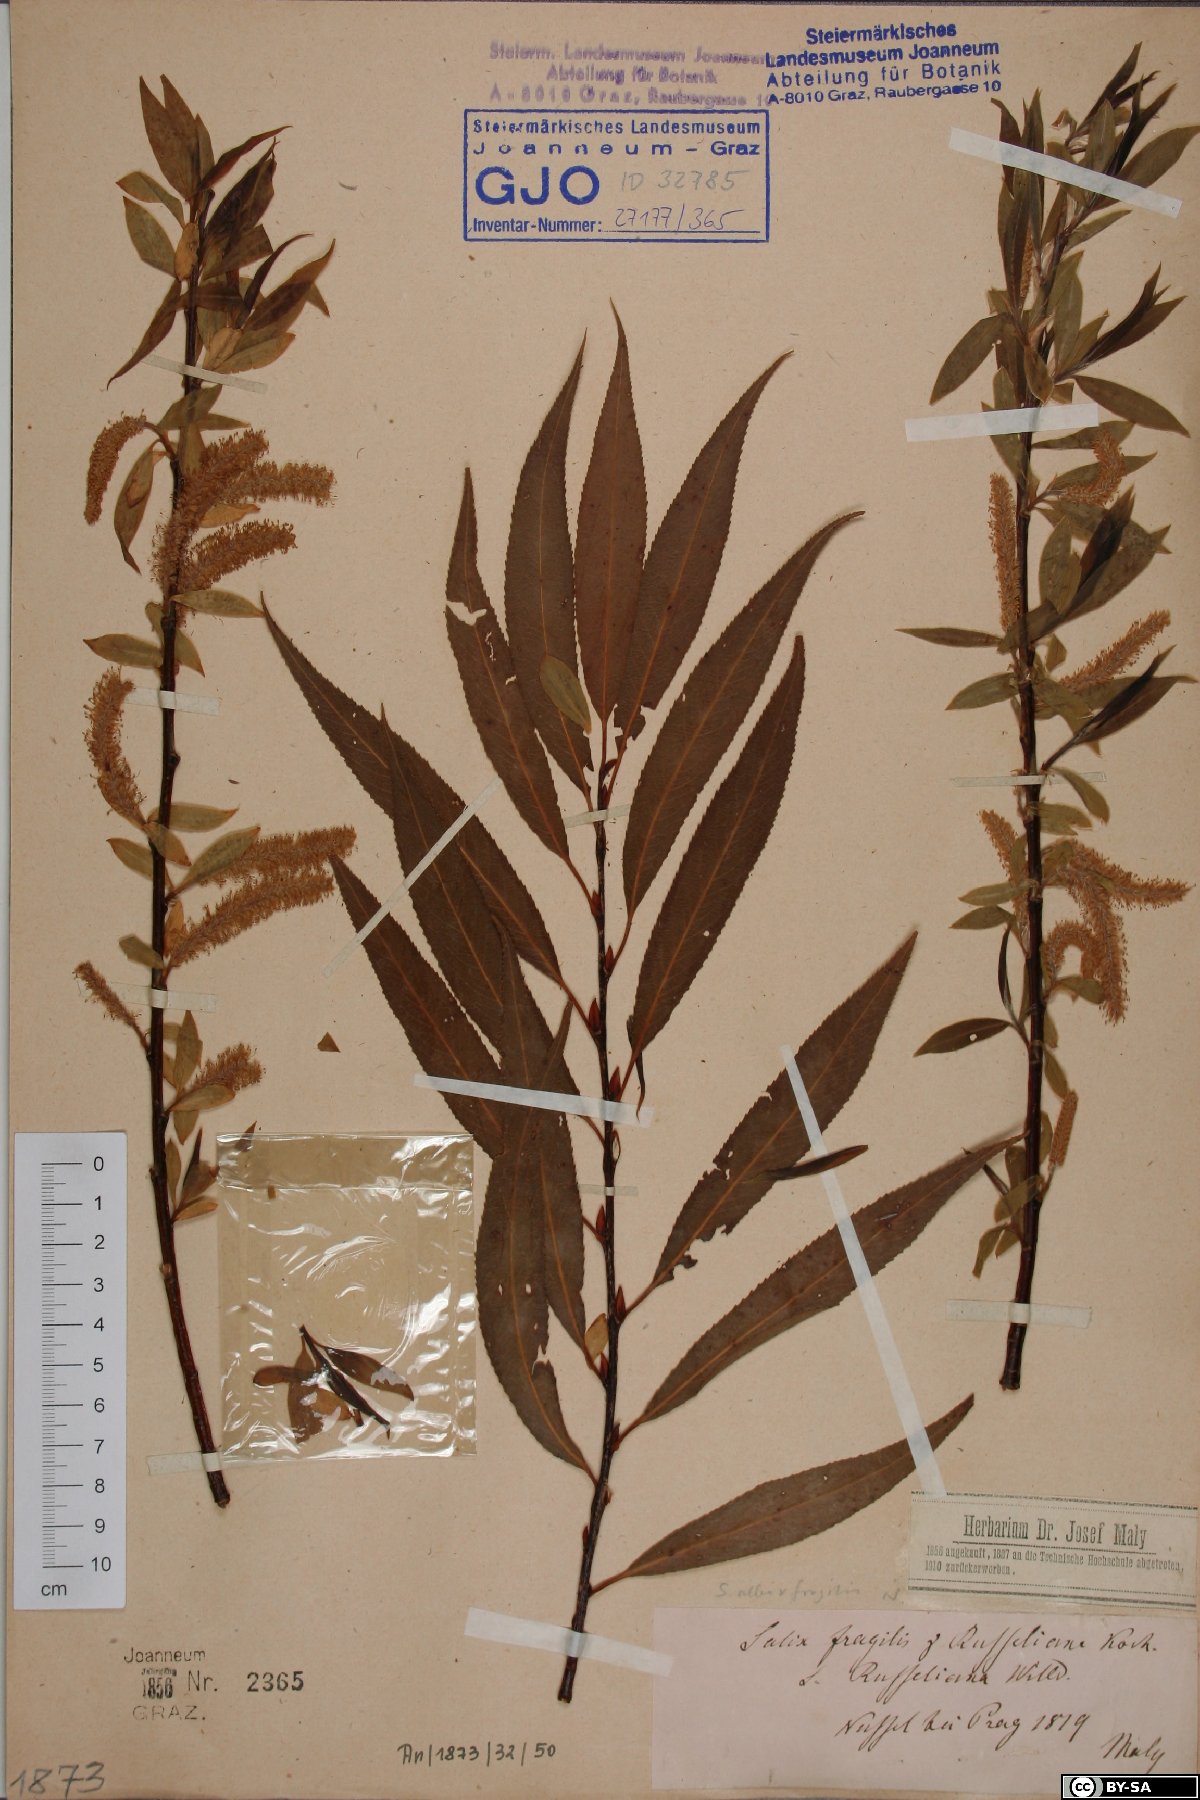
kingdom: Plantae
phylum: Tracheophyta
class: Magnoliopsida
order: Malpighiales
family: Salicaceae
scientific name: Salicaceae
